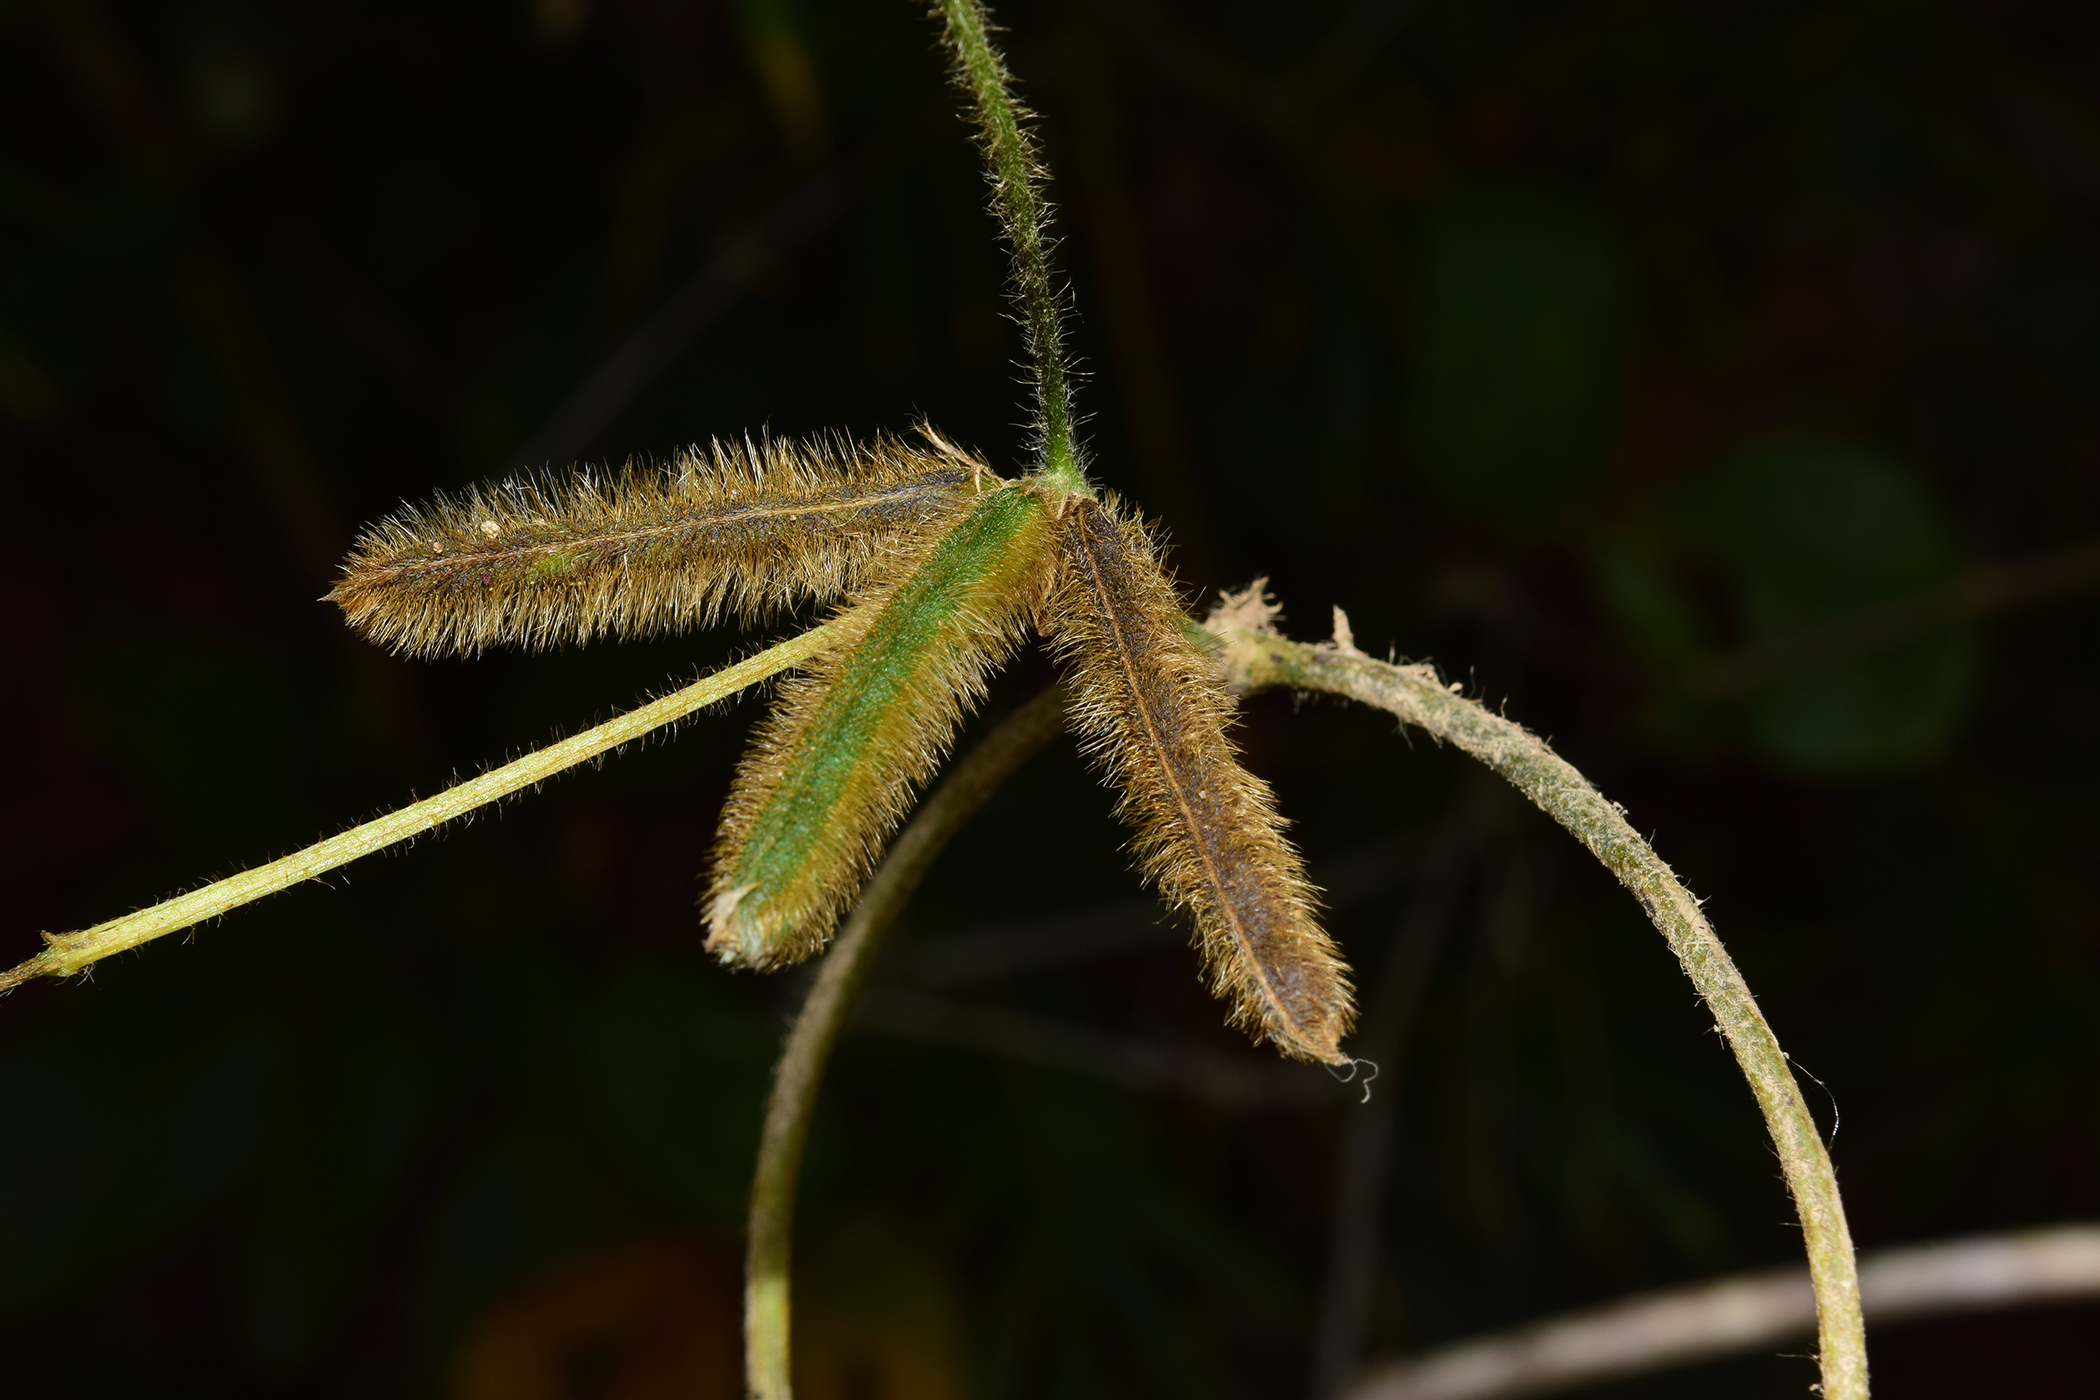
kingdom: Plantae
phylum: Tracheophyta
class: Magnoliopsida
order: Fabales
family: Fabaceae
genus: Calopogonium
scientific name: Calopogonium mucunoides
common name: Calopo
